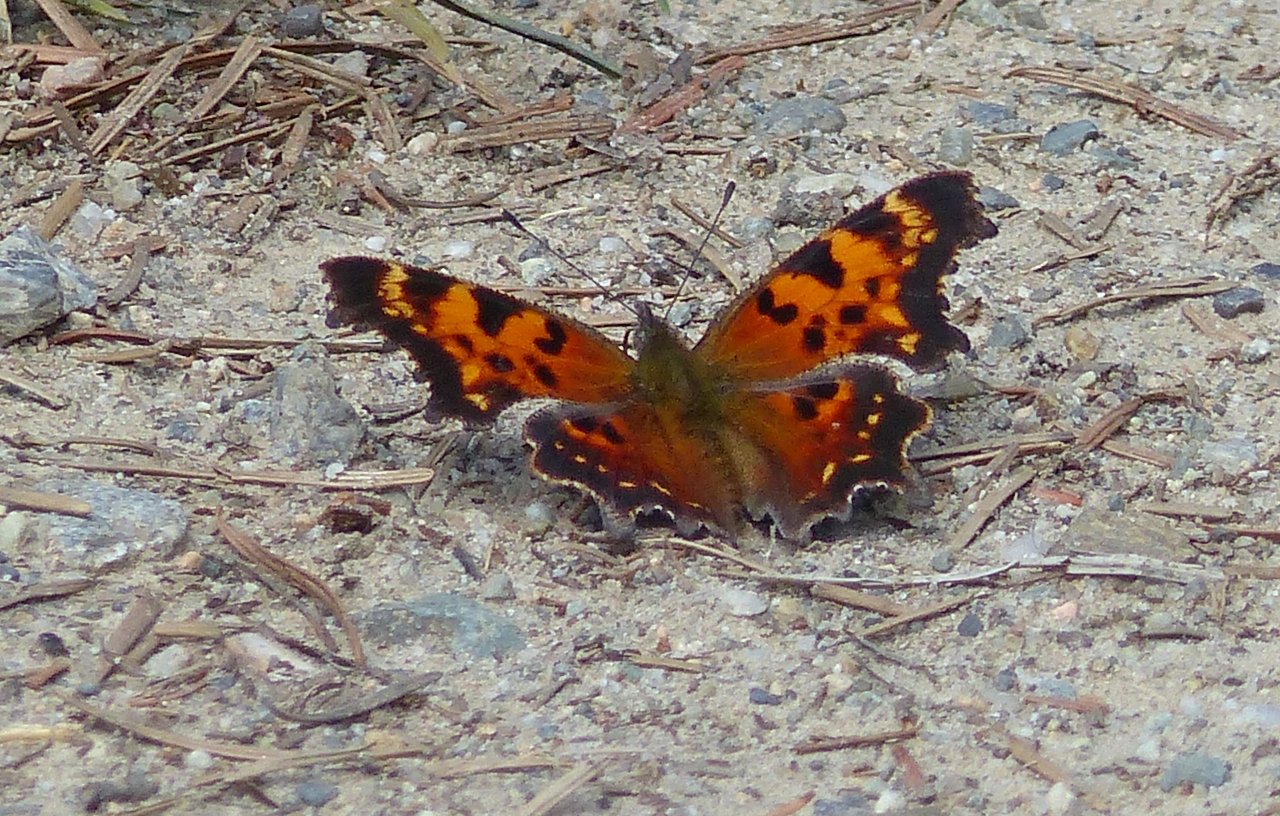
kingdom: Animalia
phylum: Arthropoda
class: Insecta
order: Lepidoptera
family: Nymphalidae
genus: Polygonia
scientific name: Polygonia oreas
